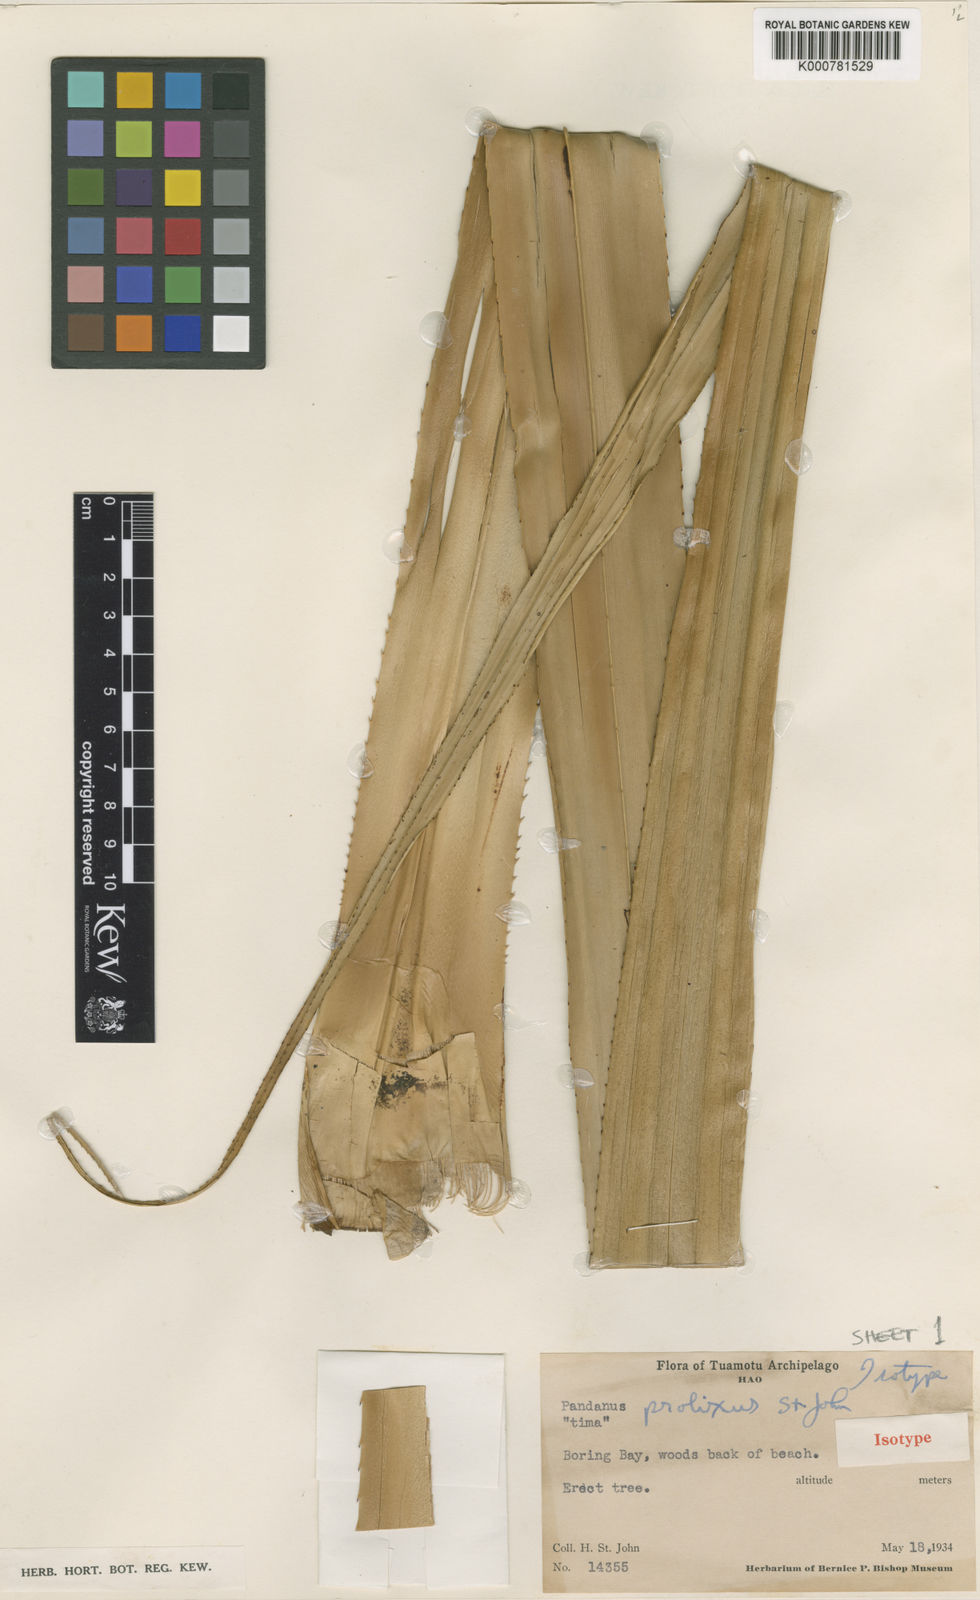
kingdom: Plantae
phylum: Tracheophyta
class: Liliopsida
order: Pandanales
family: Pandanaceae
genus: Pandanus
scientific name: Pandanus tectorius
